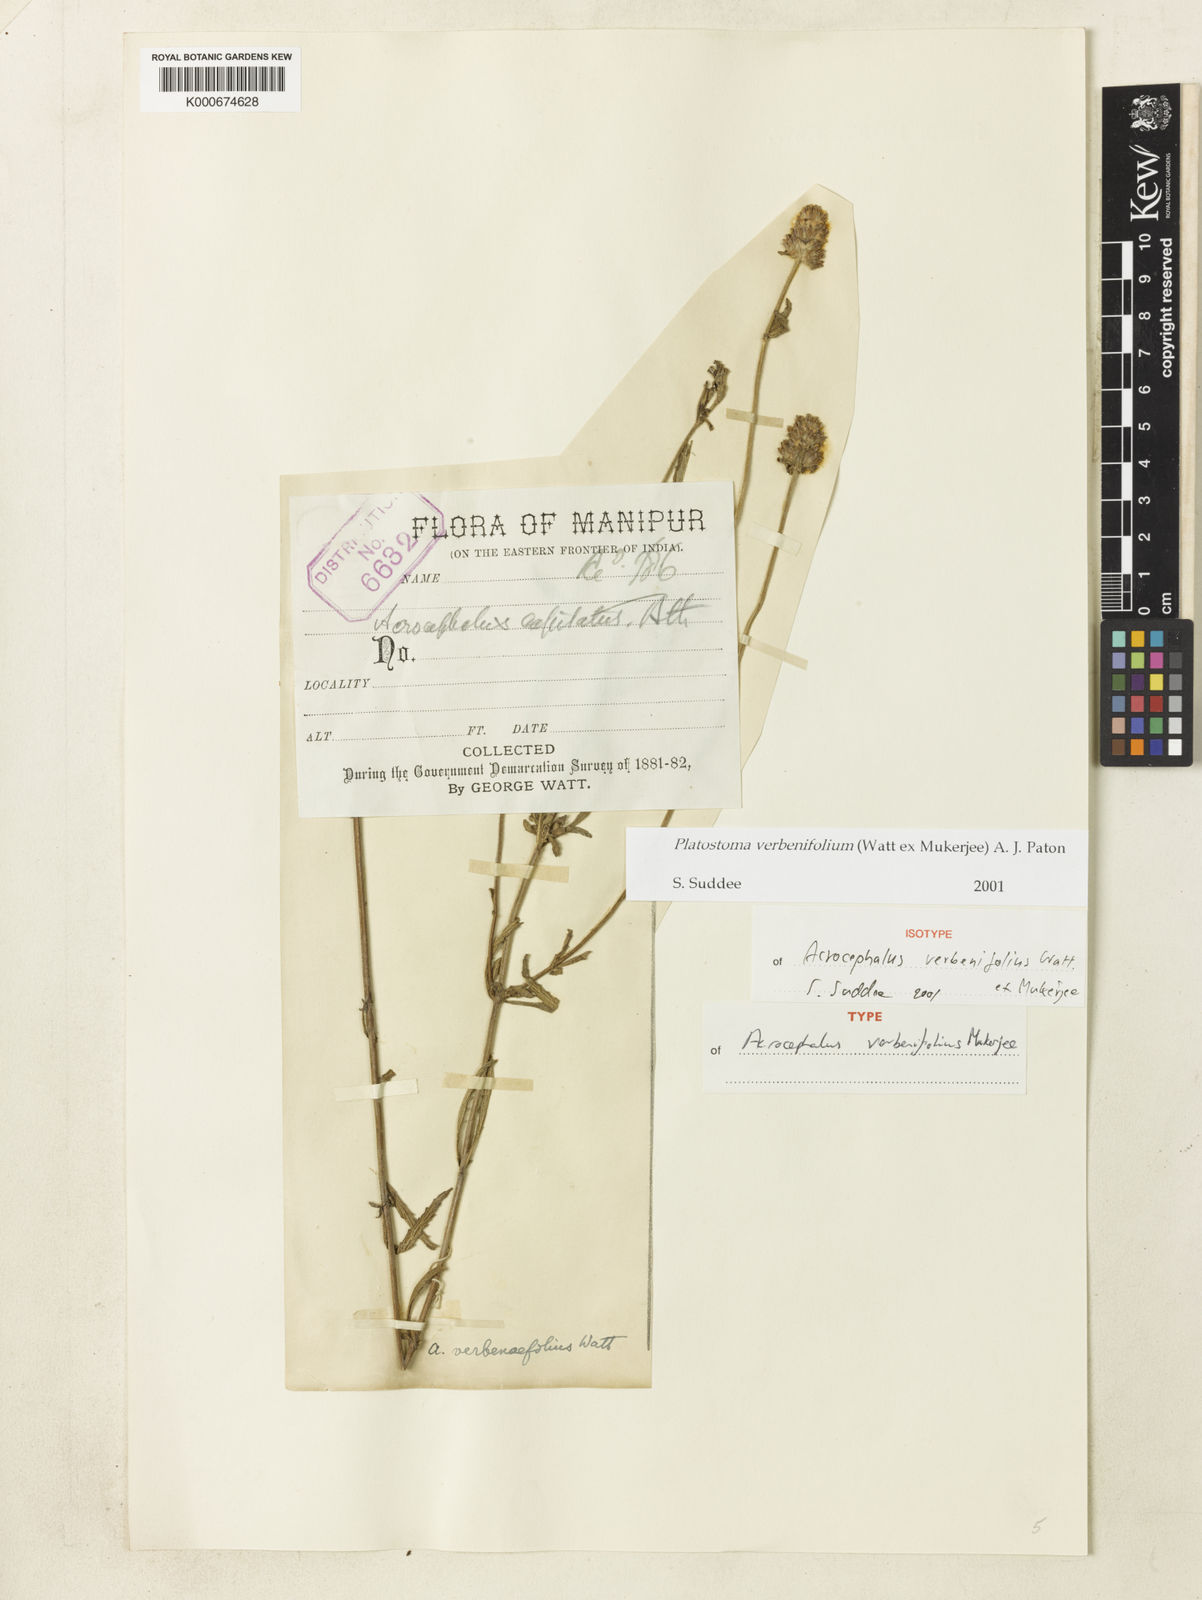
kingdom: Plantae
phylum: Tracheophyta
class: Magnoliopsida
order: Lamiales
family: Lamiaceae
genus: Platostoma
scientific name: Platostoma verbenifolium
